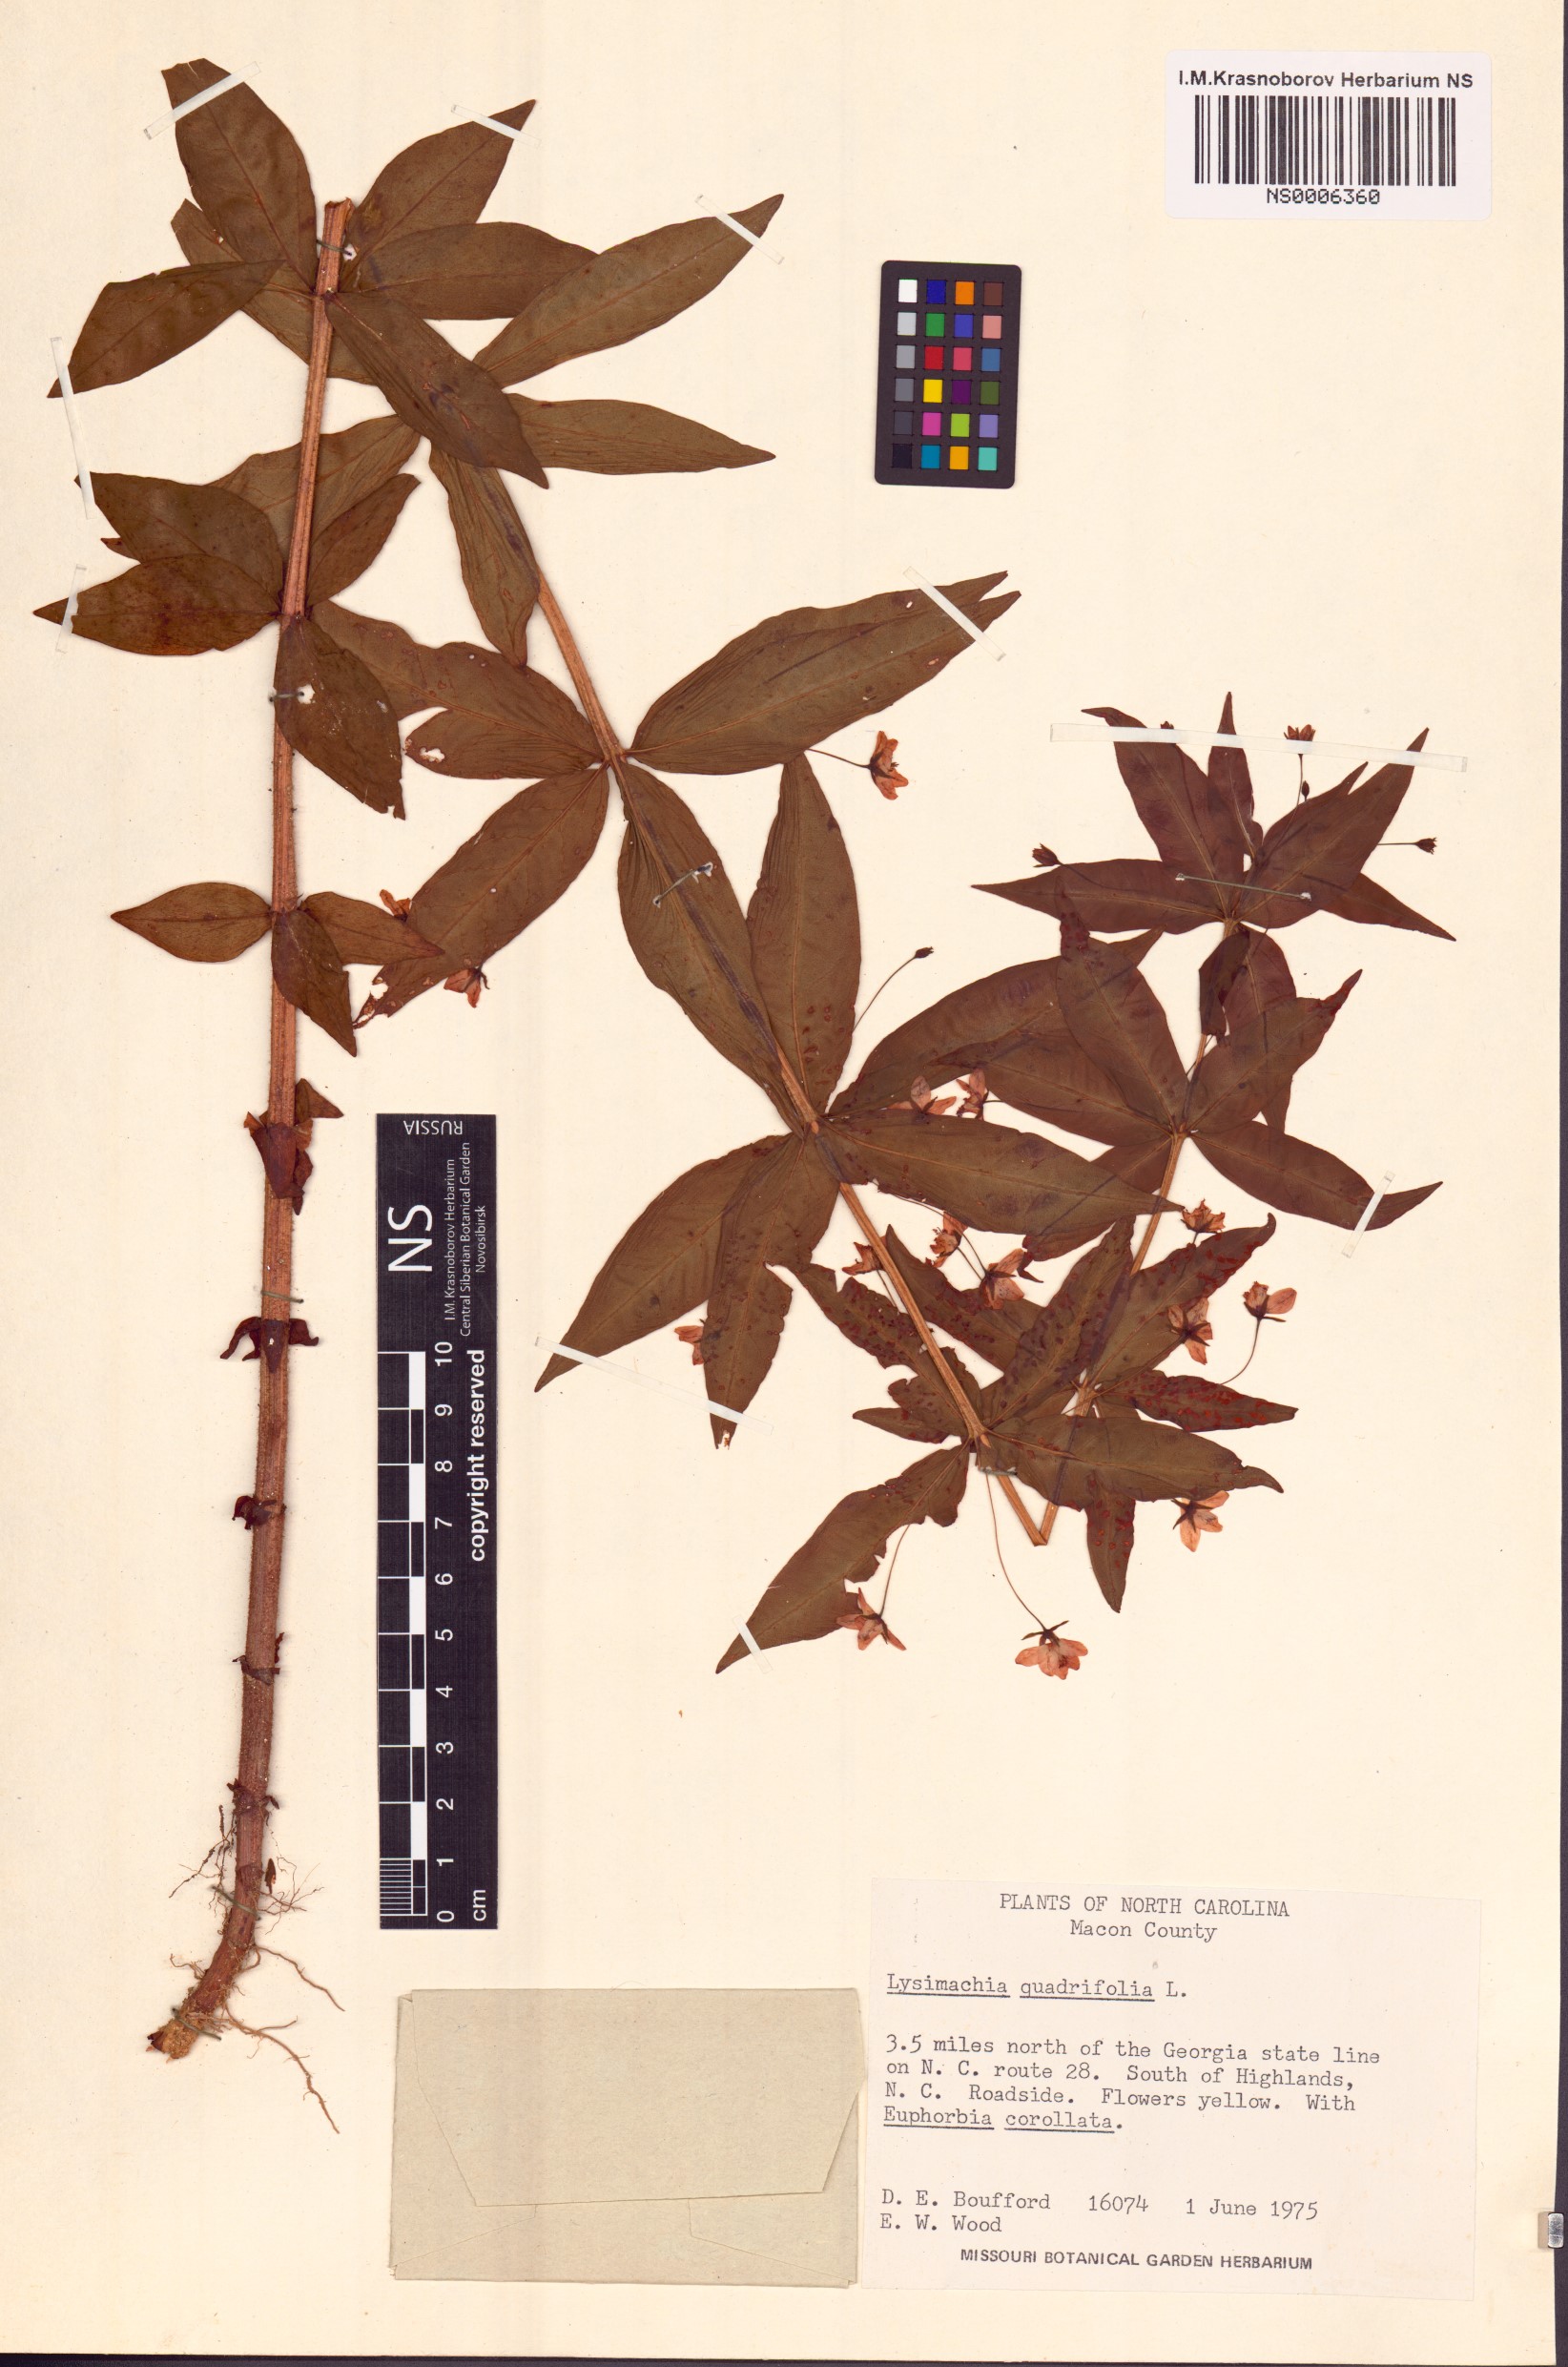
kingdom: Plantae
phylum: Tracheophyta
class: Magnoliopsida
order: Ericales
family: Primulaceae
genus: Lysimachia
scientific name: Lysimachia quadrifolia
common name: Whorled loosestrife
